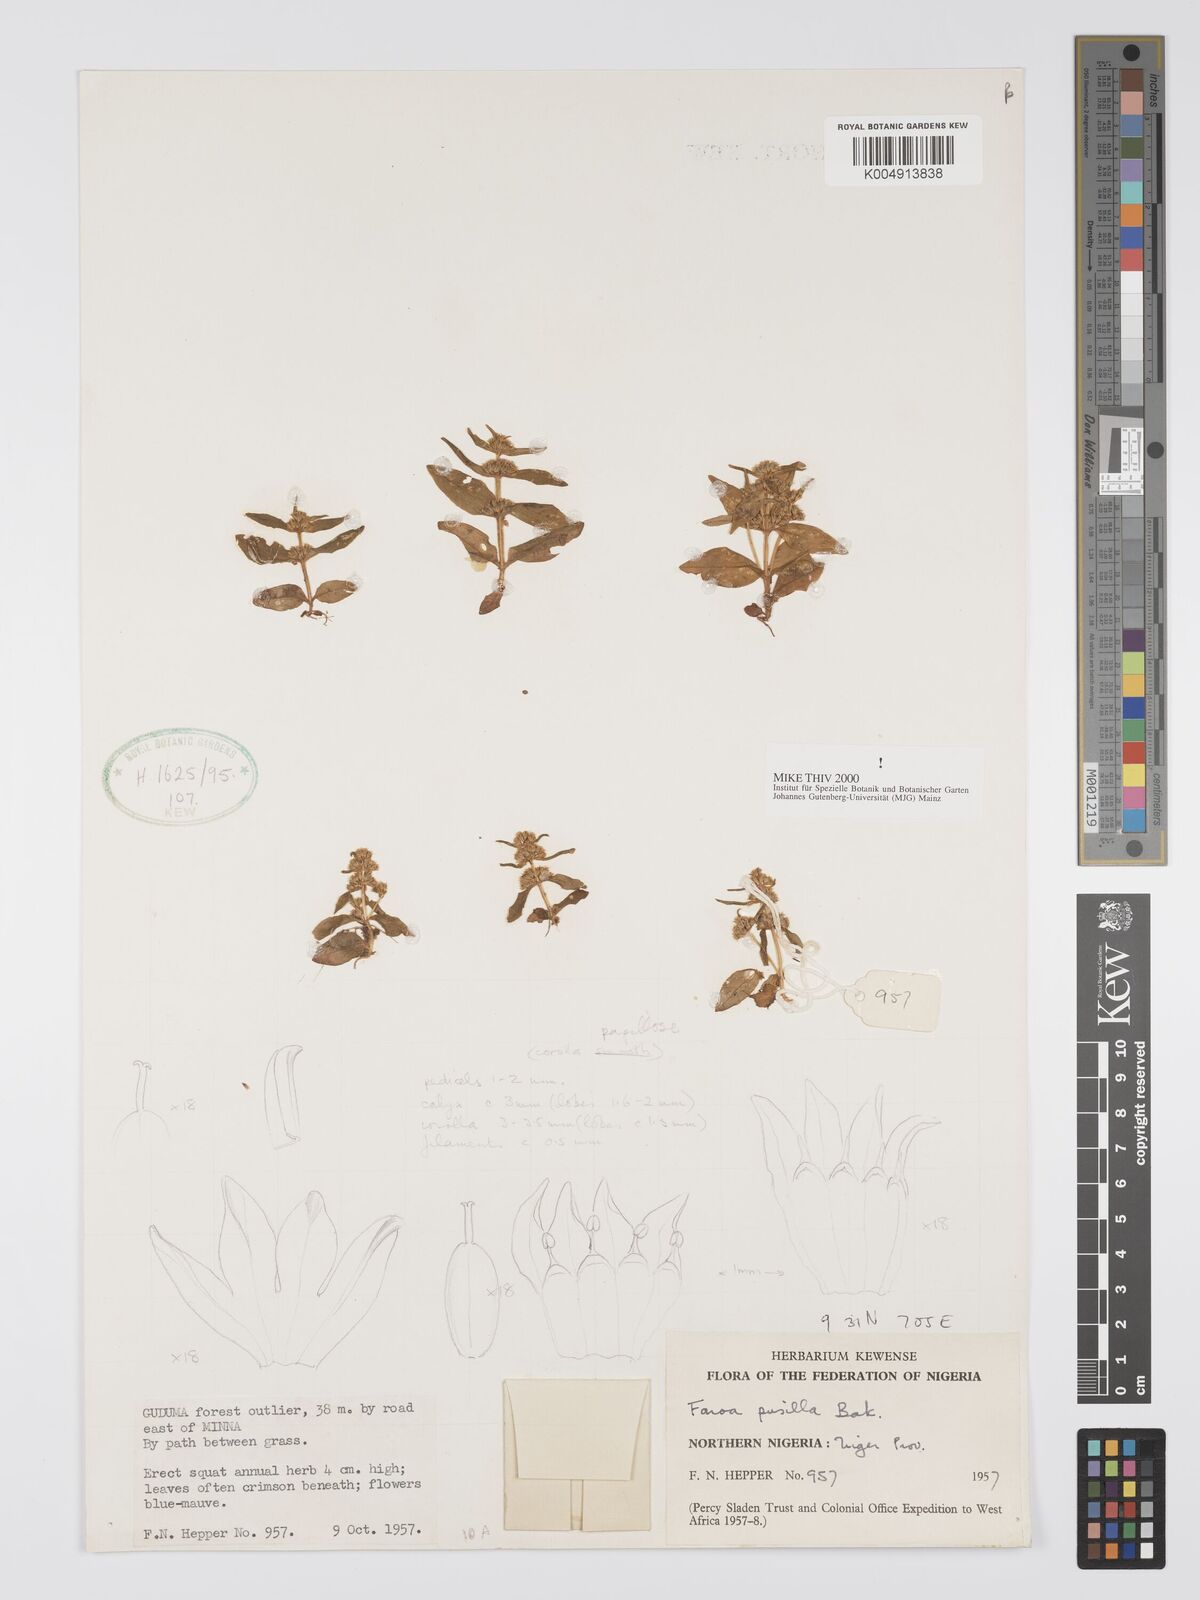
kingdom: Plantae
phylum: Tracheophyta
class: Magnoliopsida
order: Gentianales
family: Gentianaceae
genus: Faroa
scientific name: Faroa pusilla
